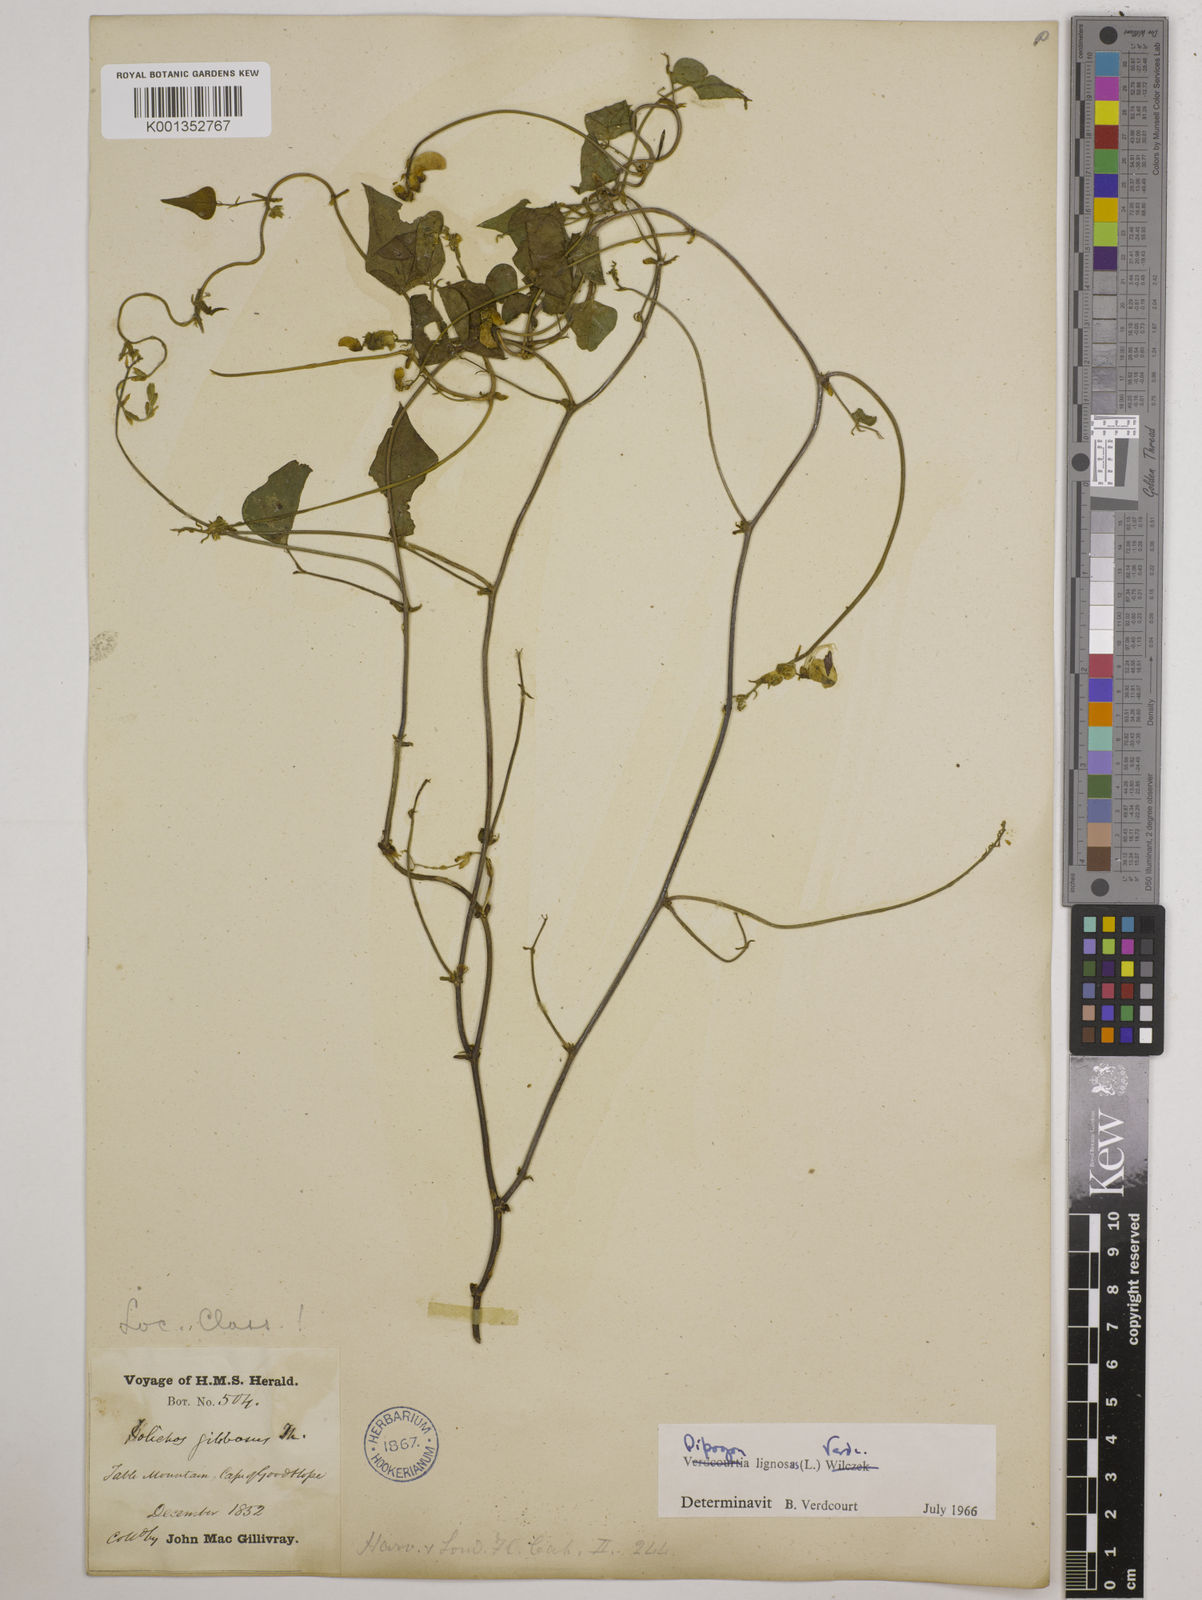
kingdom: Plantae
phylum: Tracheophyta
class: Magnoliopsida
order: Fabales
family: Fabaceae
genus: Dipogon
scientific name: Dipogon lignosus
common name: Okie bean
